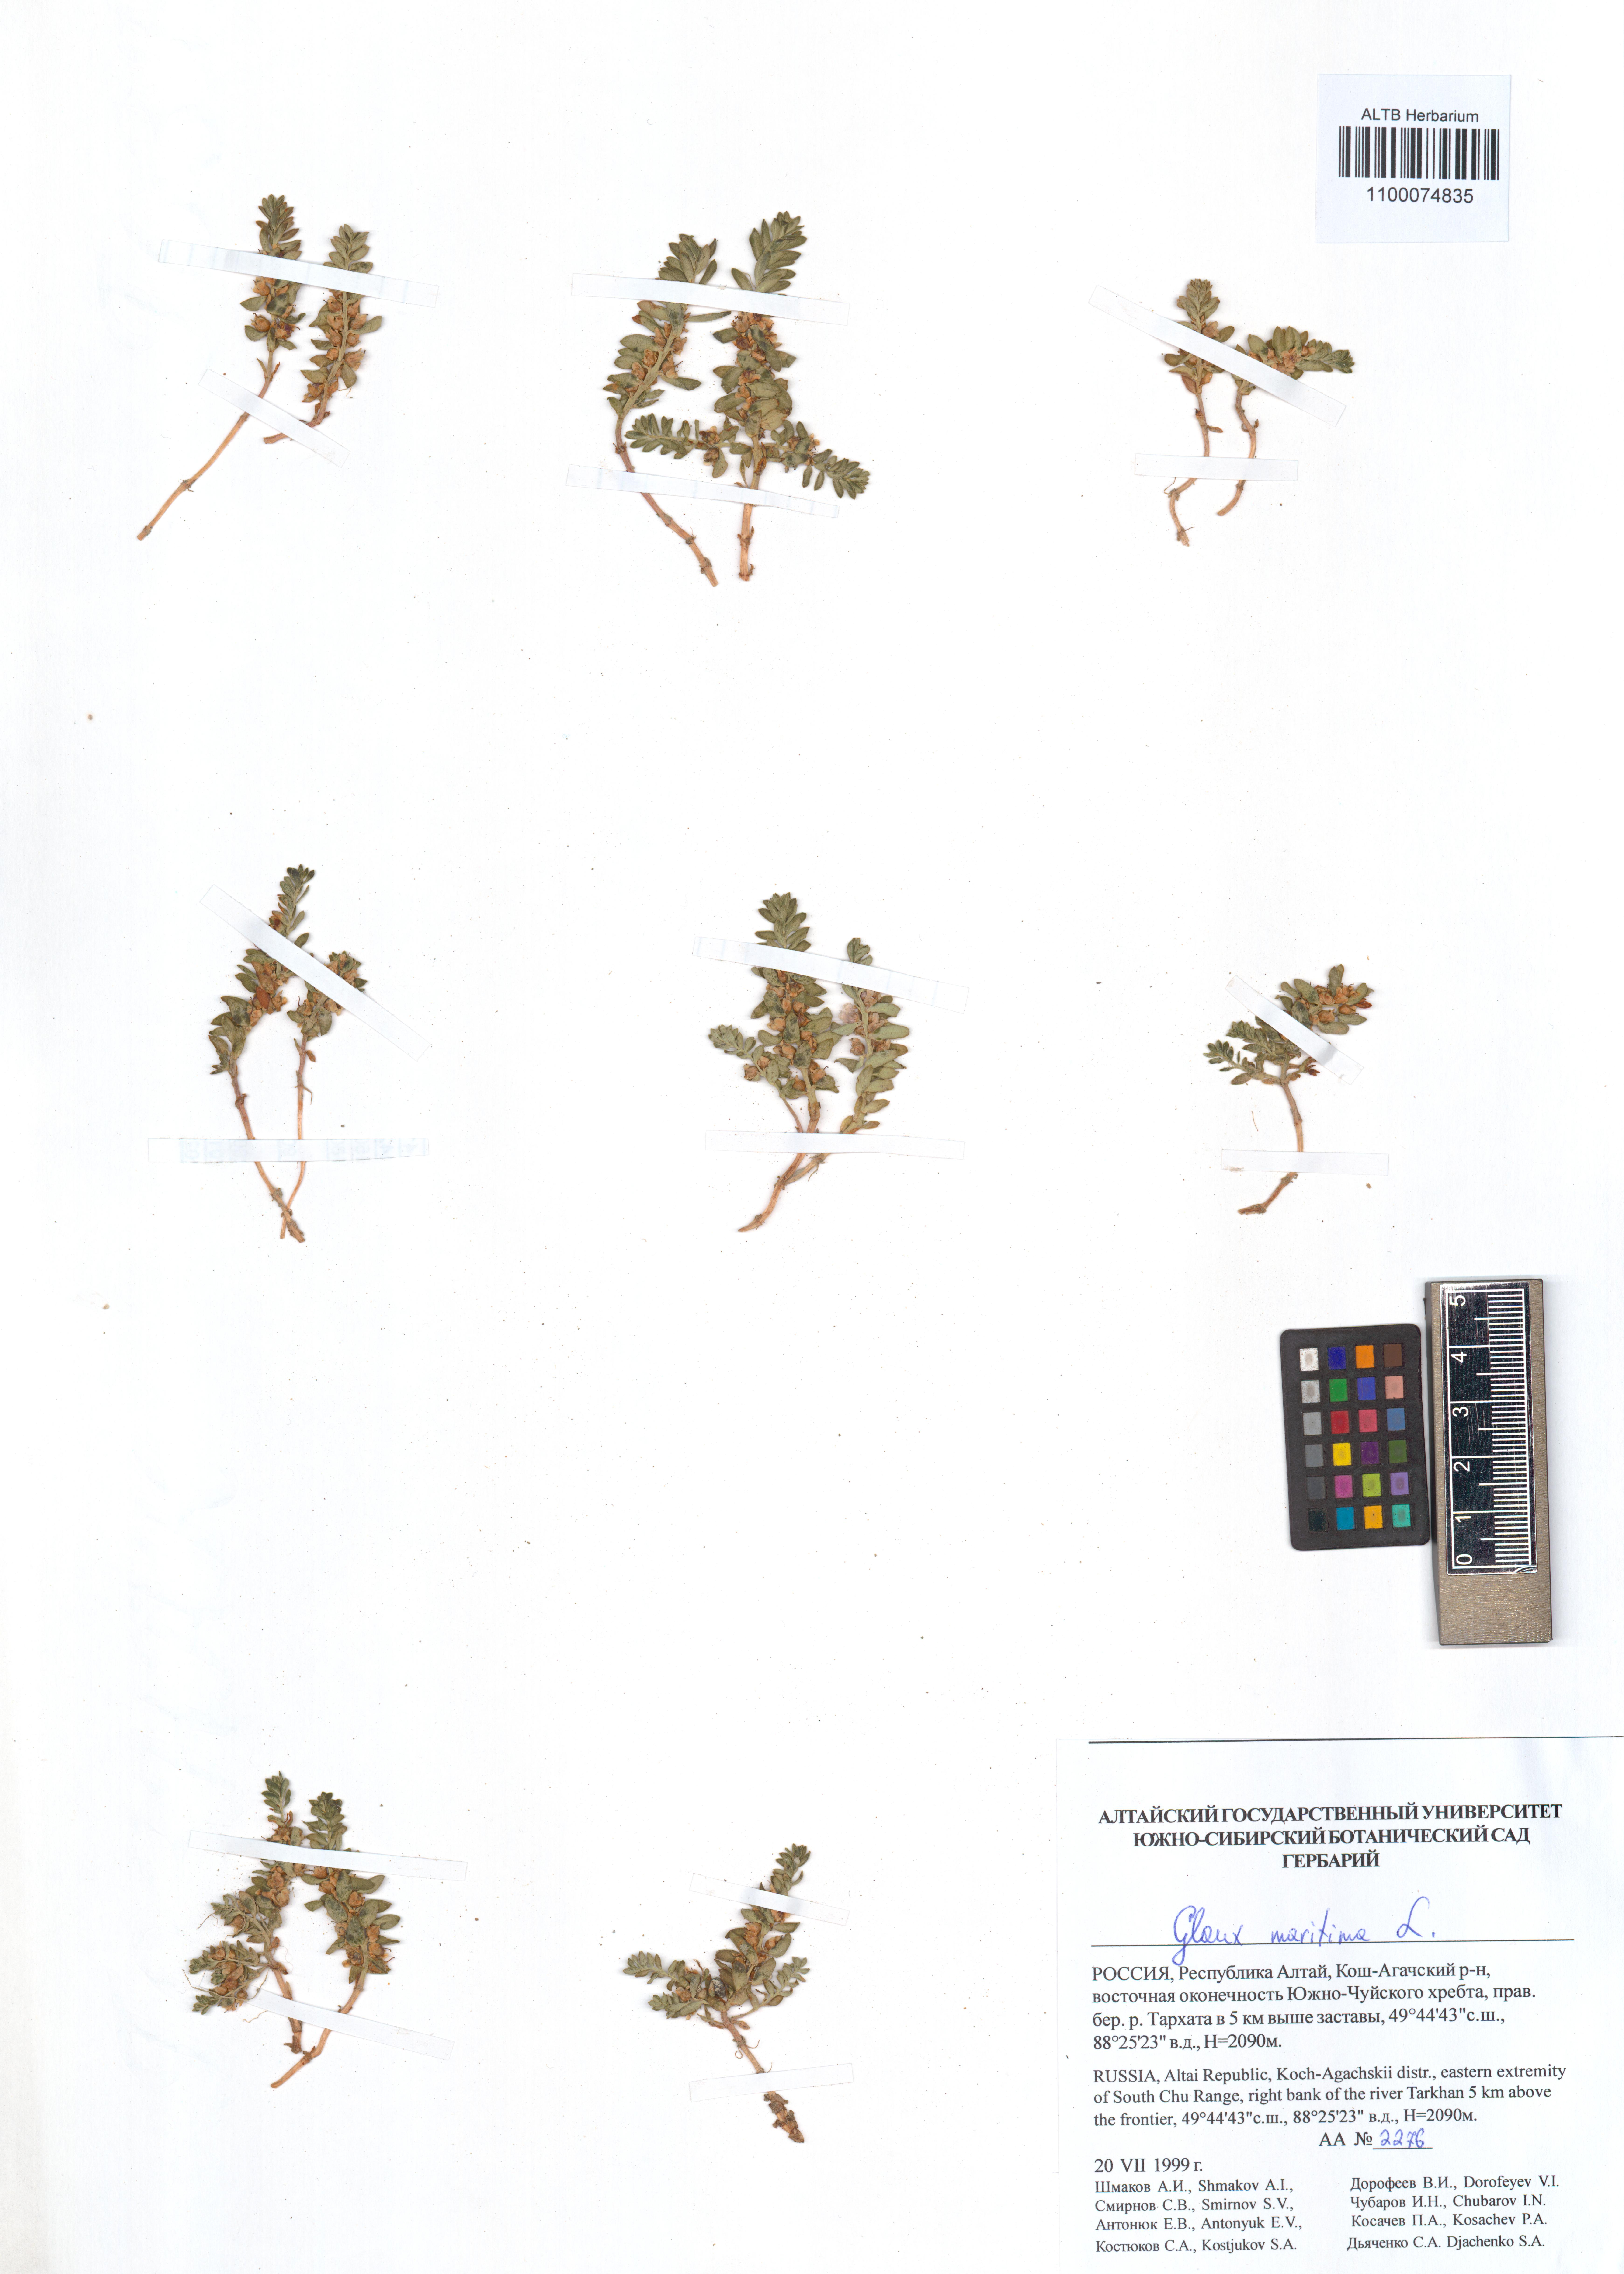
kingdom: Plantae
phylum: Tracheophyta
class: Magnoliopsida
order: Ericales
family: Primulaceae
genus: Lysimachia
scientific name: Lysimachia maritima
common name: Sea milkwort
